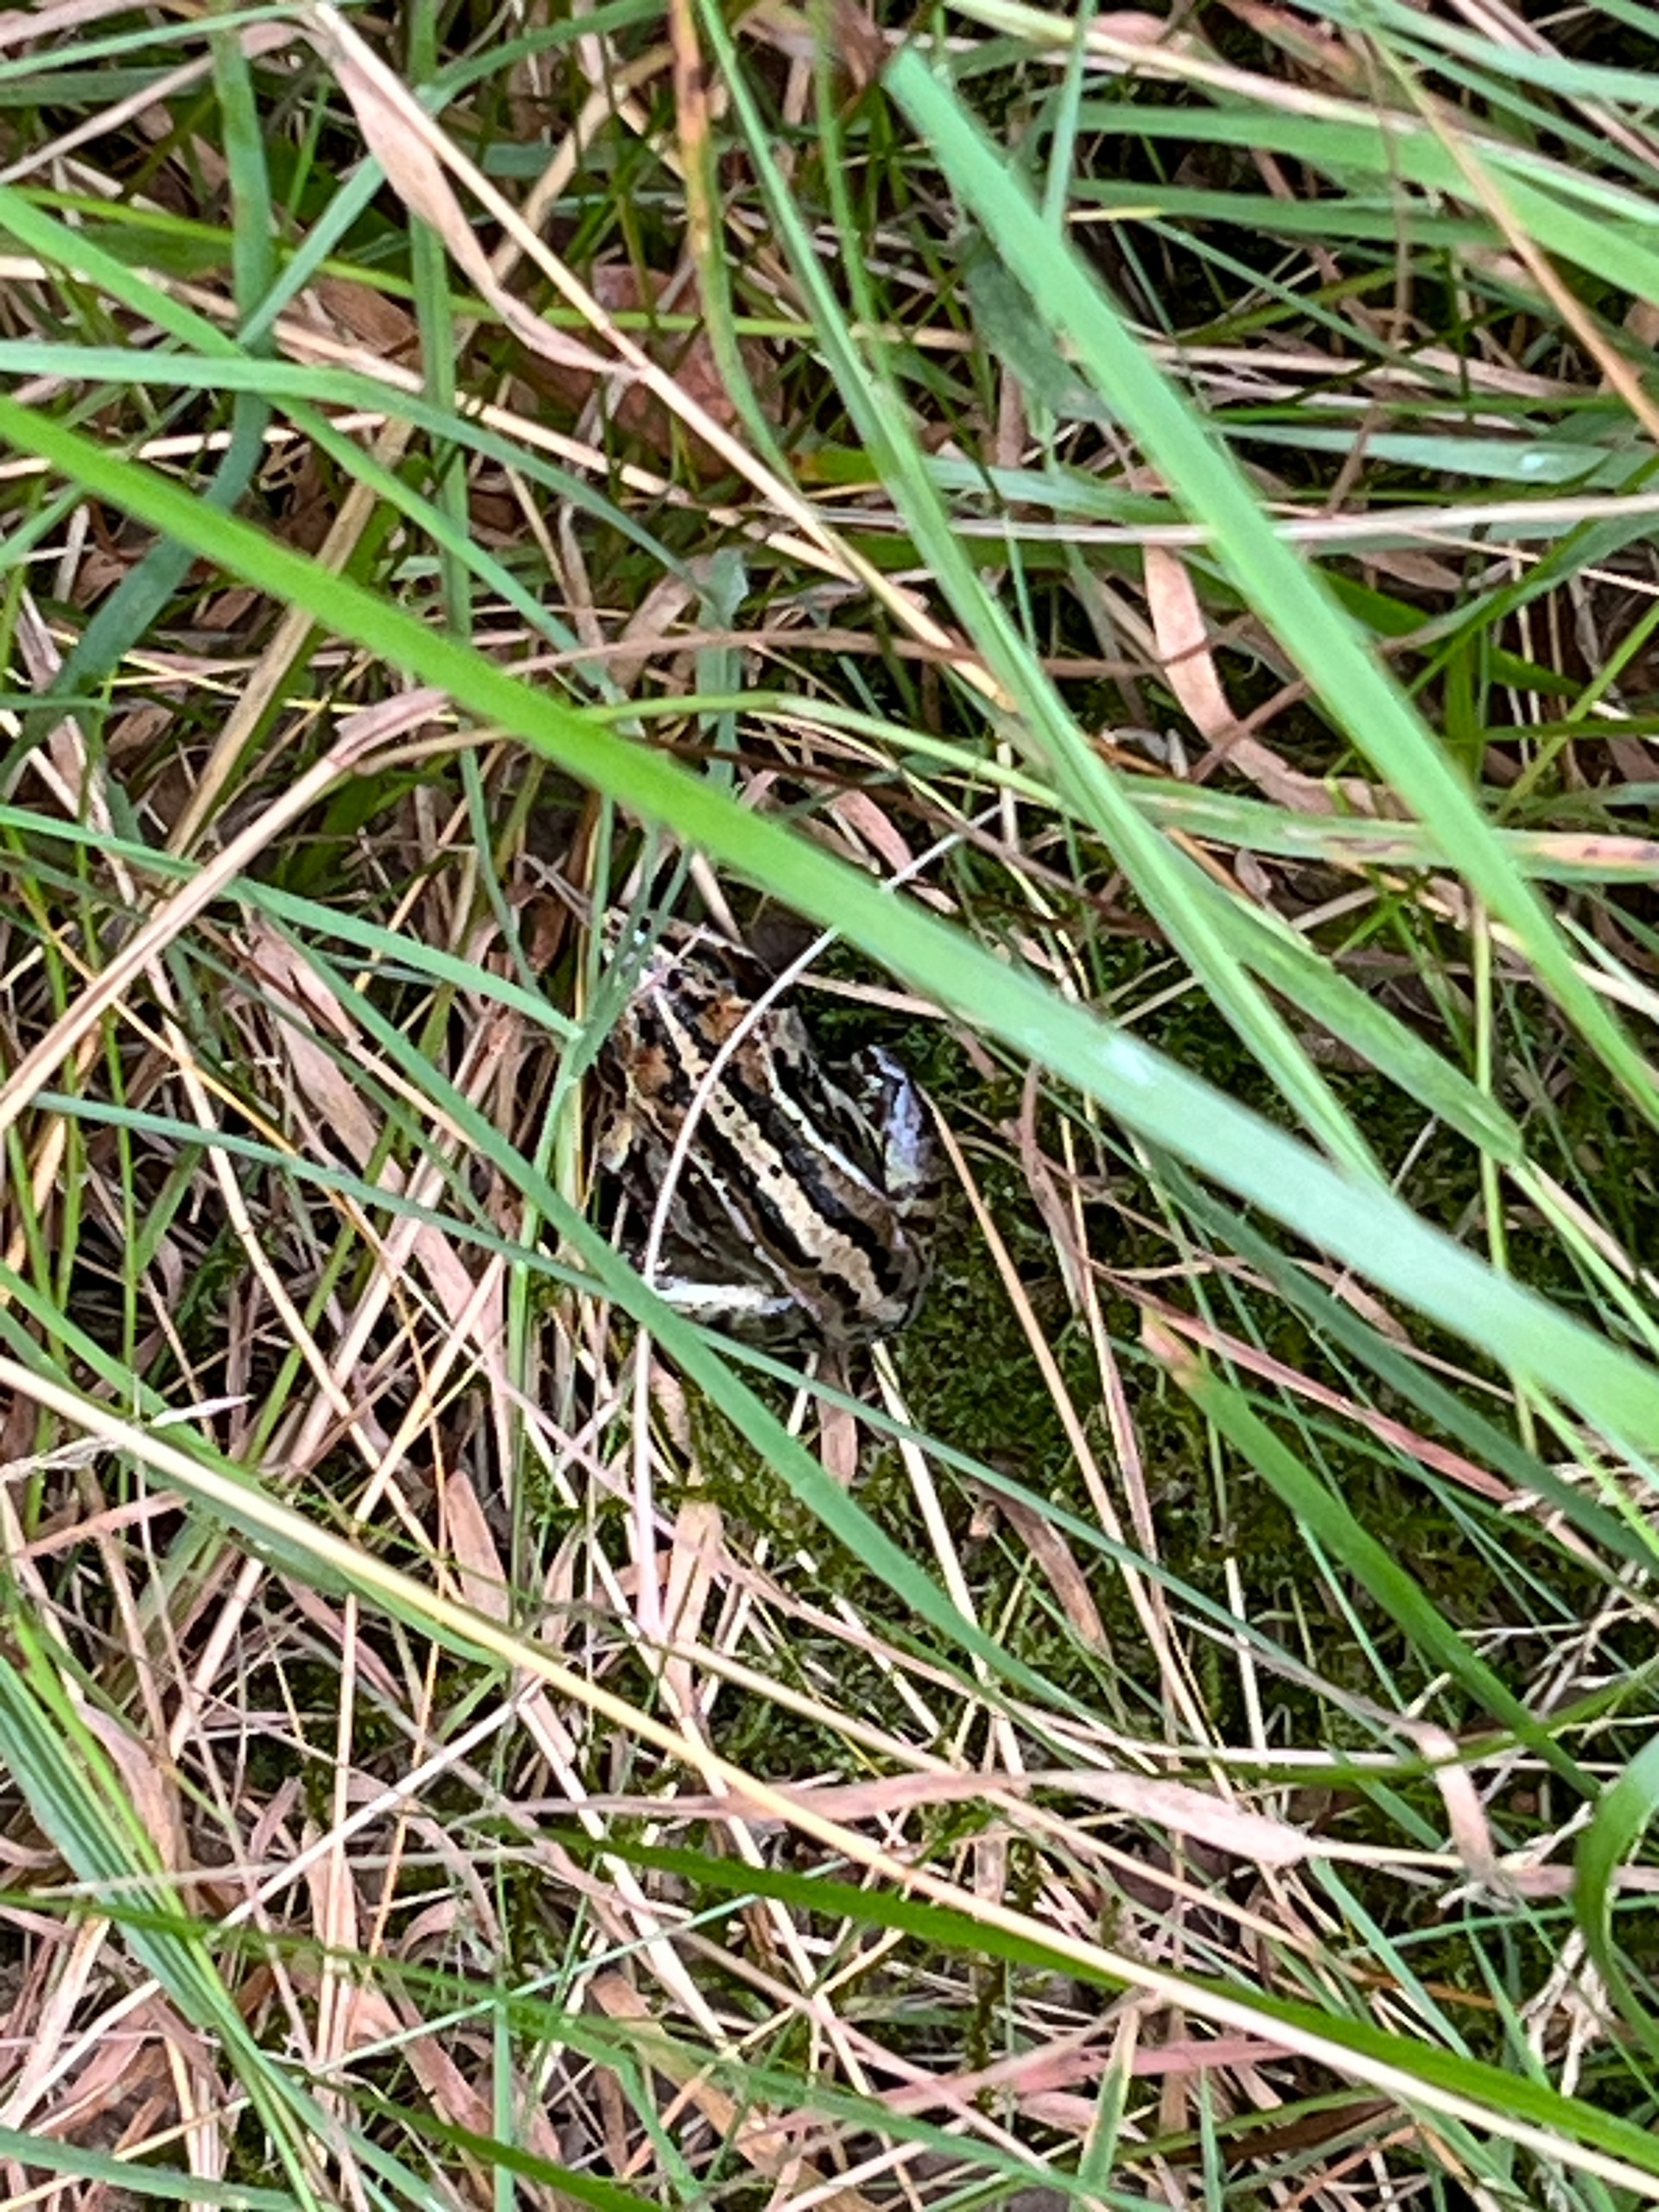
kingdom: Animalia
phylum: Chordata
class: Amphibia
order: Anura
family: Ranidae
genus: Rana
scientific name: Rana arvalis
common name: Spidssnudet frø
